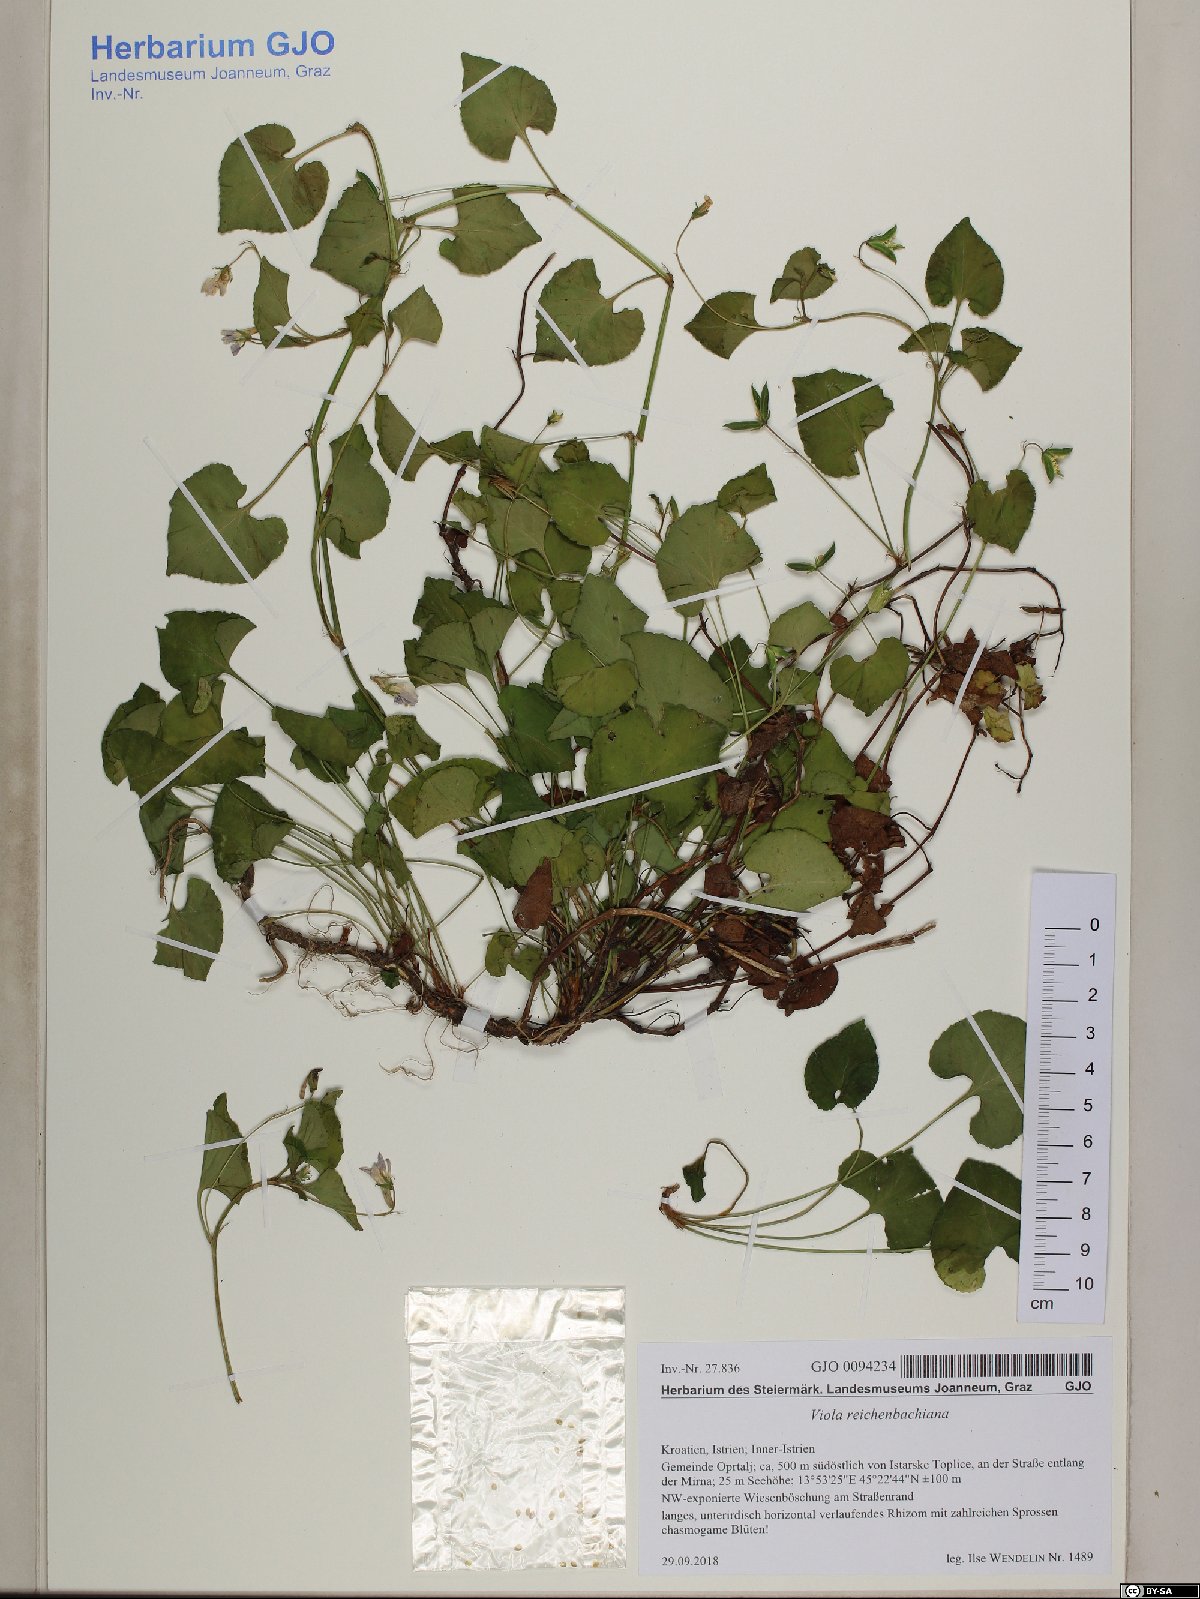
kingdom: Plantae
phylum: Tracheophyta
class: Magnoliopsida
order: Malpighiales
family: Violaceae
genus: Viola
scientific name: Viola reichenbachiana
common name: Early dog-violet
